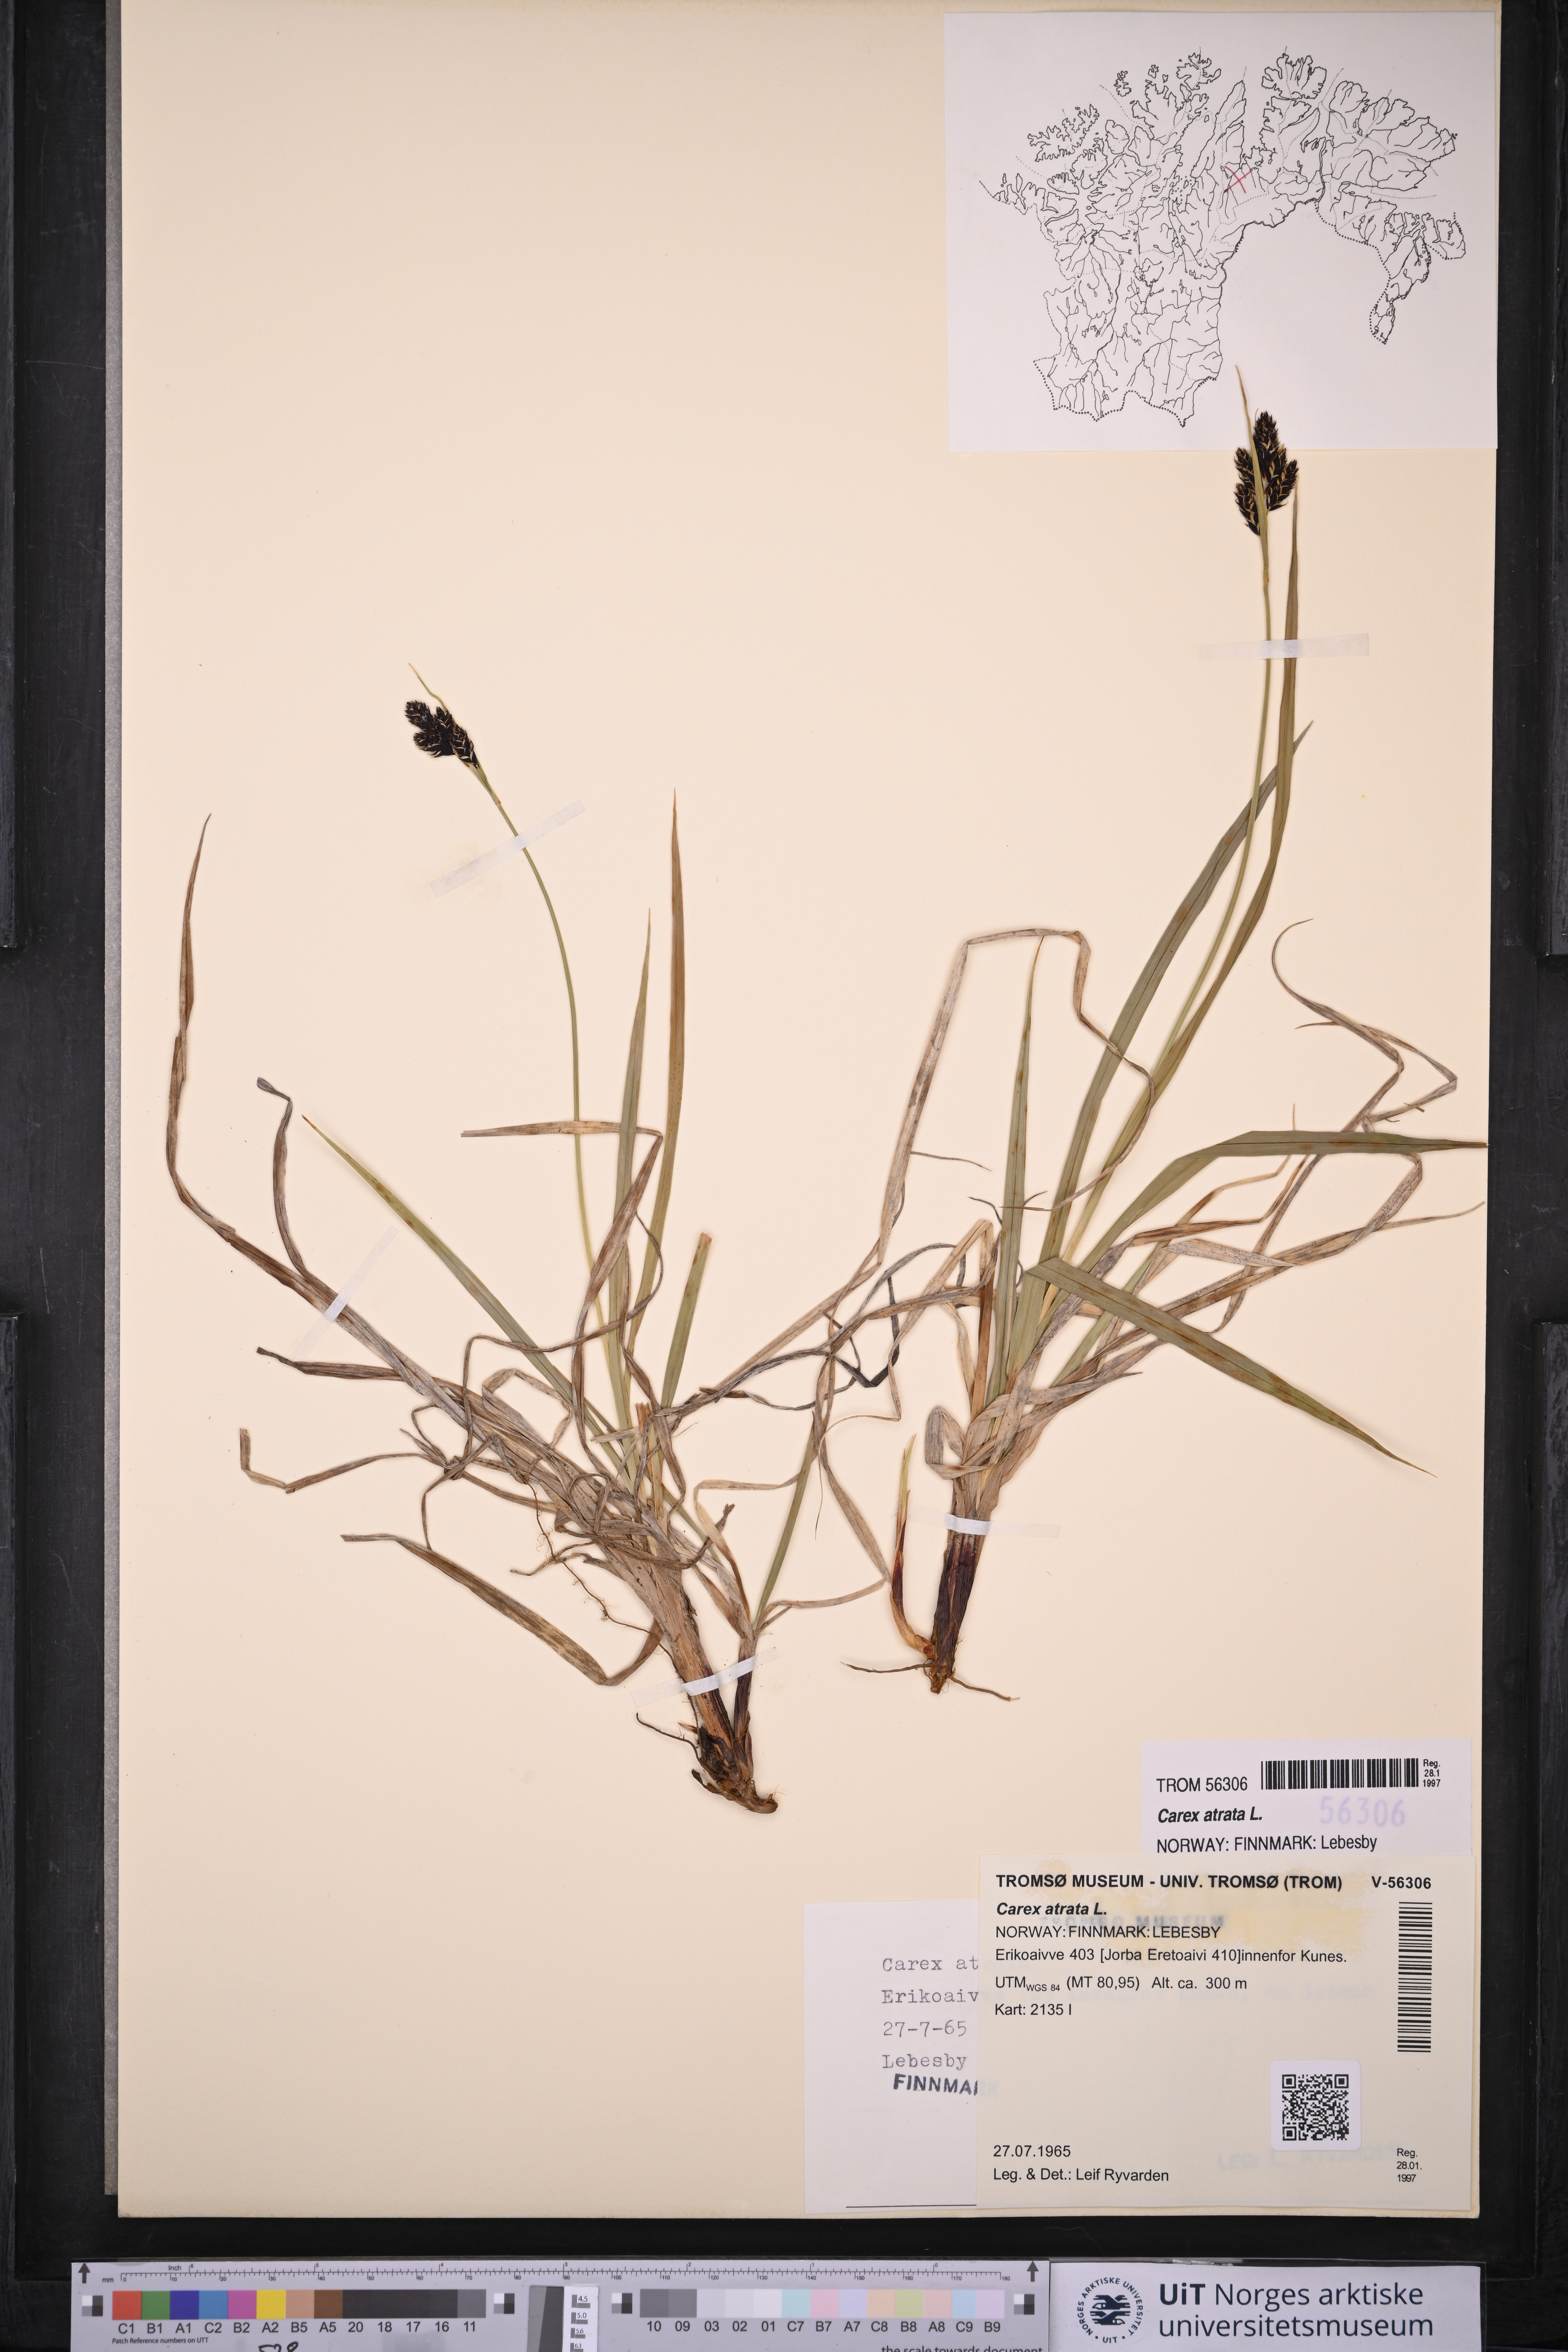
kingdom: Plantae
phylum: Tracheophyta
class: Liliopsida
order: Poales
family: Cyperaceae
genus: Carex
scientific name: Carex atrata
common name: Black alpine sedge
